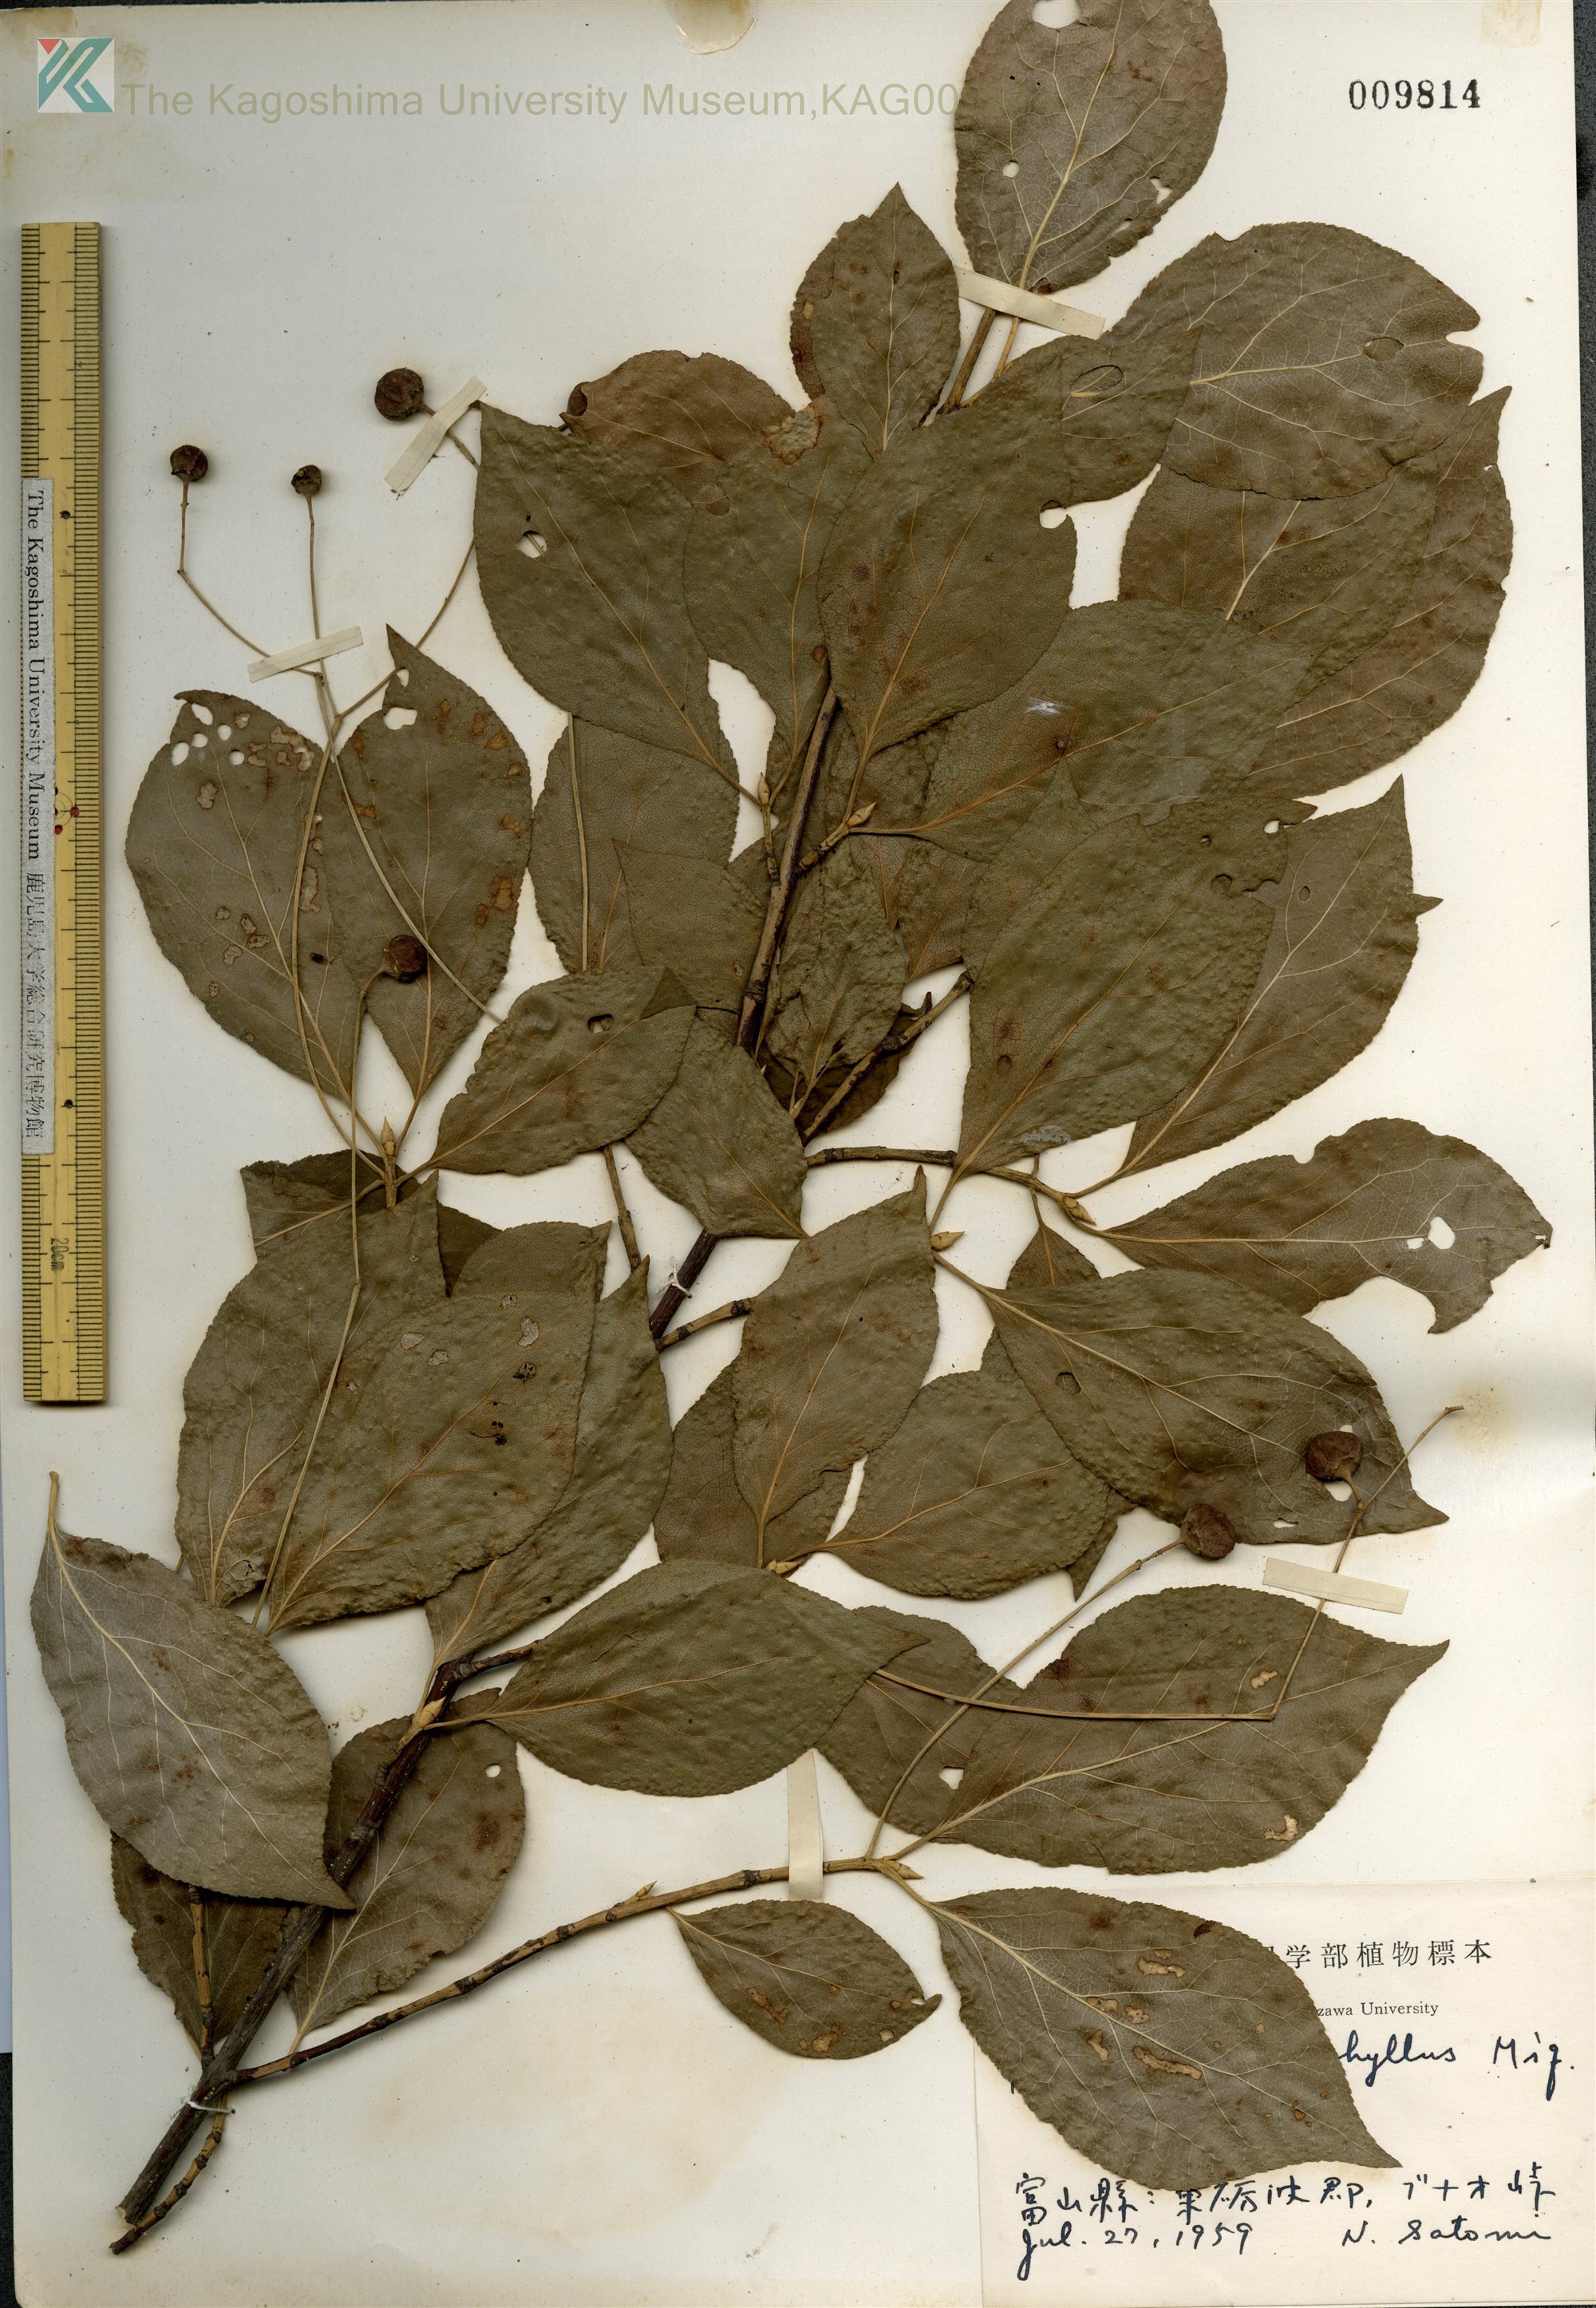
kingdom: Plantae
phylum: Tracheophyta
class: Magnoliopsida
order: Celastrales
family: Celastraceae
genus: Euonymus
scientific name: Euonymus oxyphyllus
